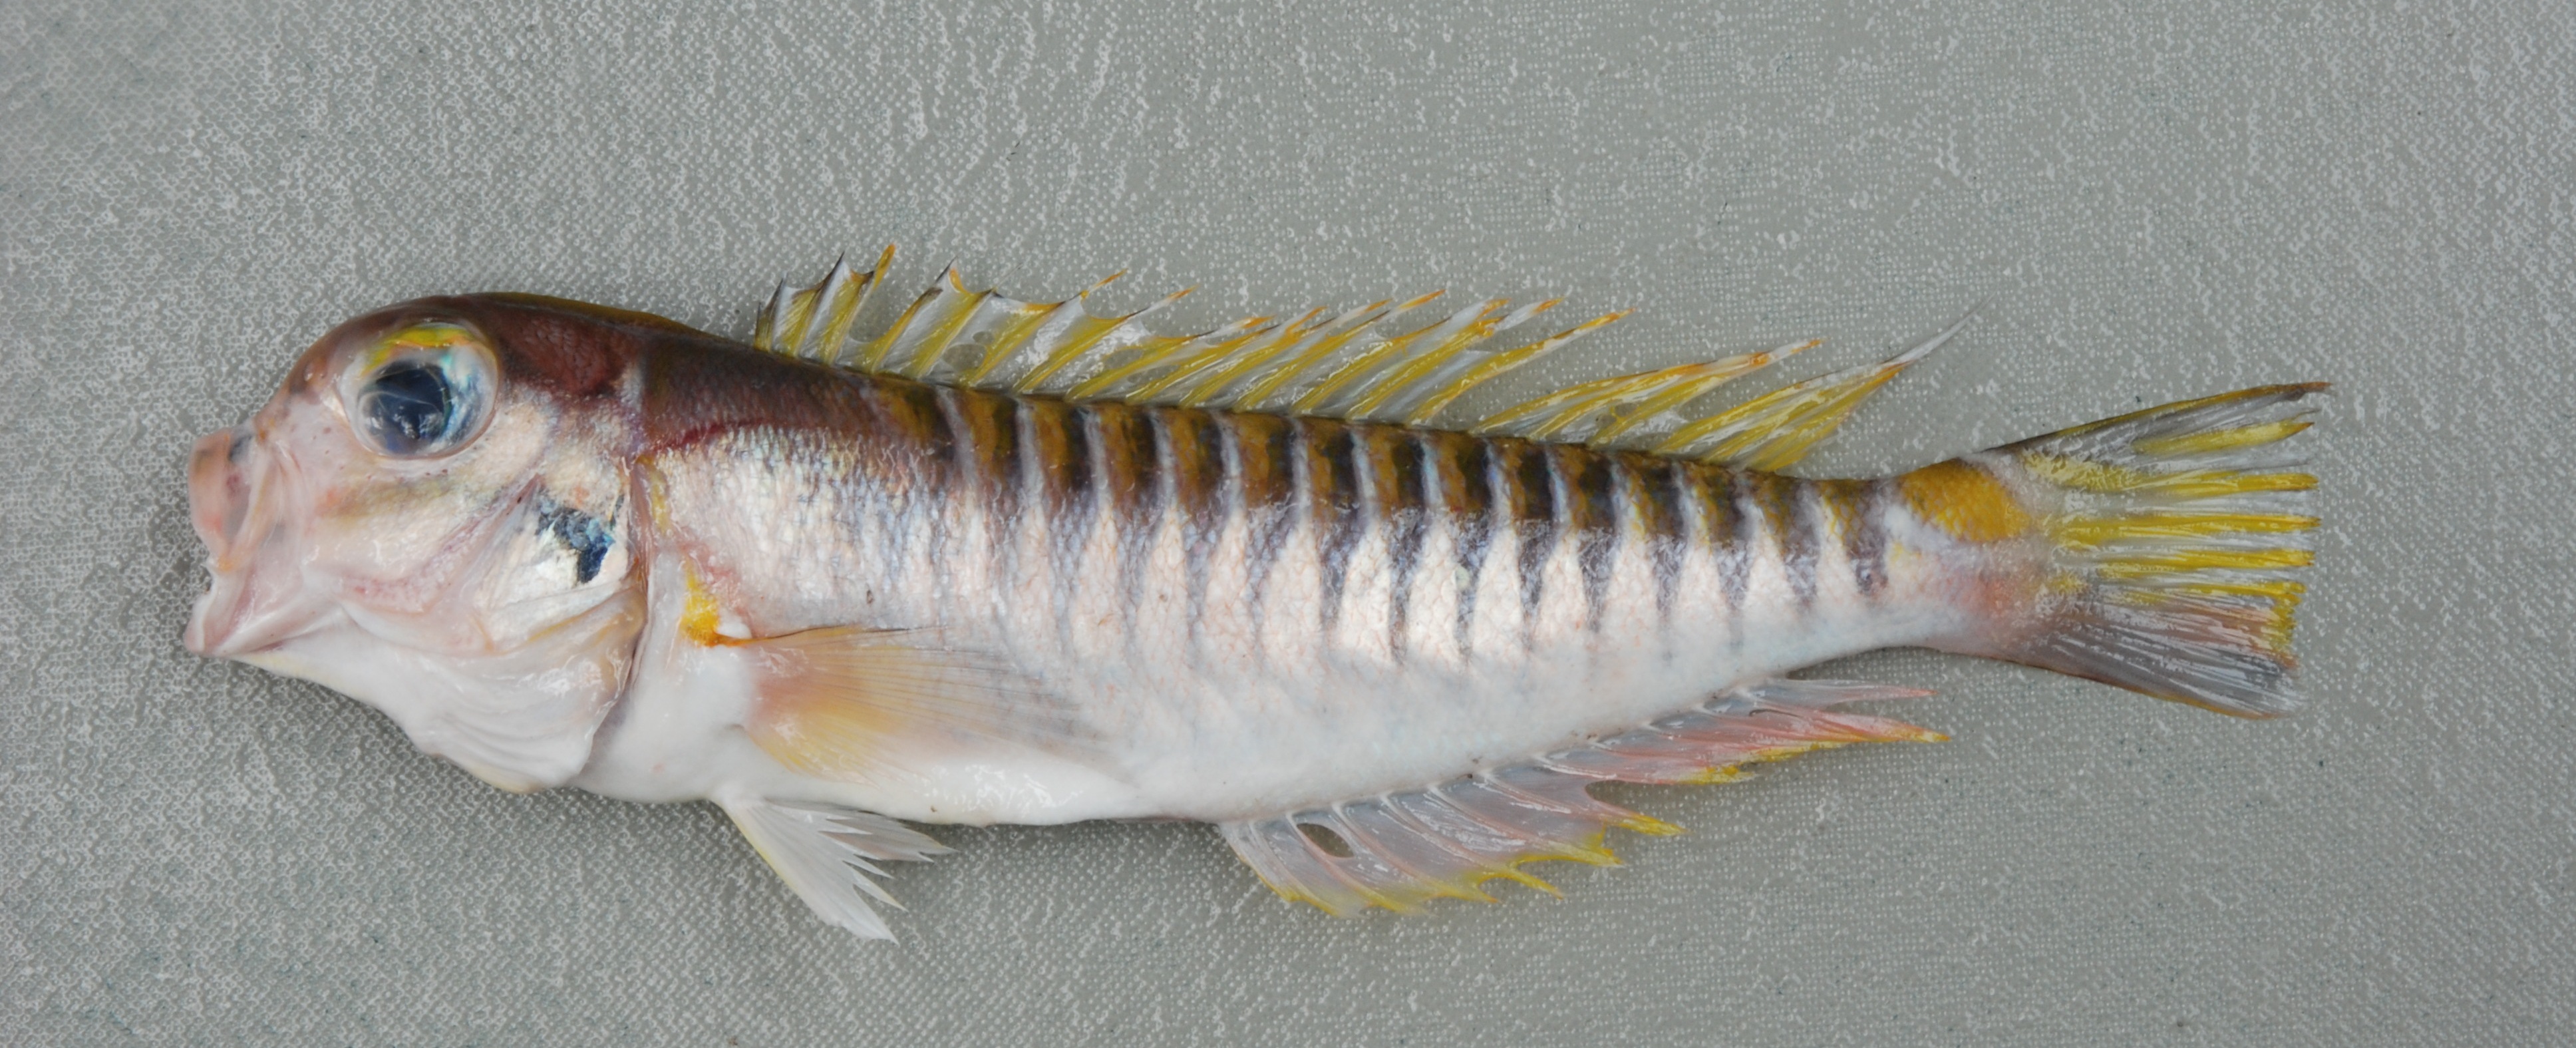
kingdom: Animalia
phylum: Chordata
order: Perciformes
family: Malacanthidae
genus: Branchiostegus
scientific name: Branchiostegus doliatus
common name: Ribbed tilefish
